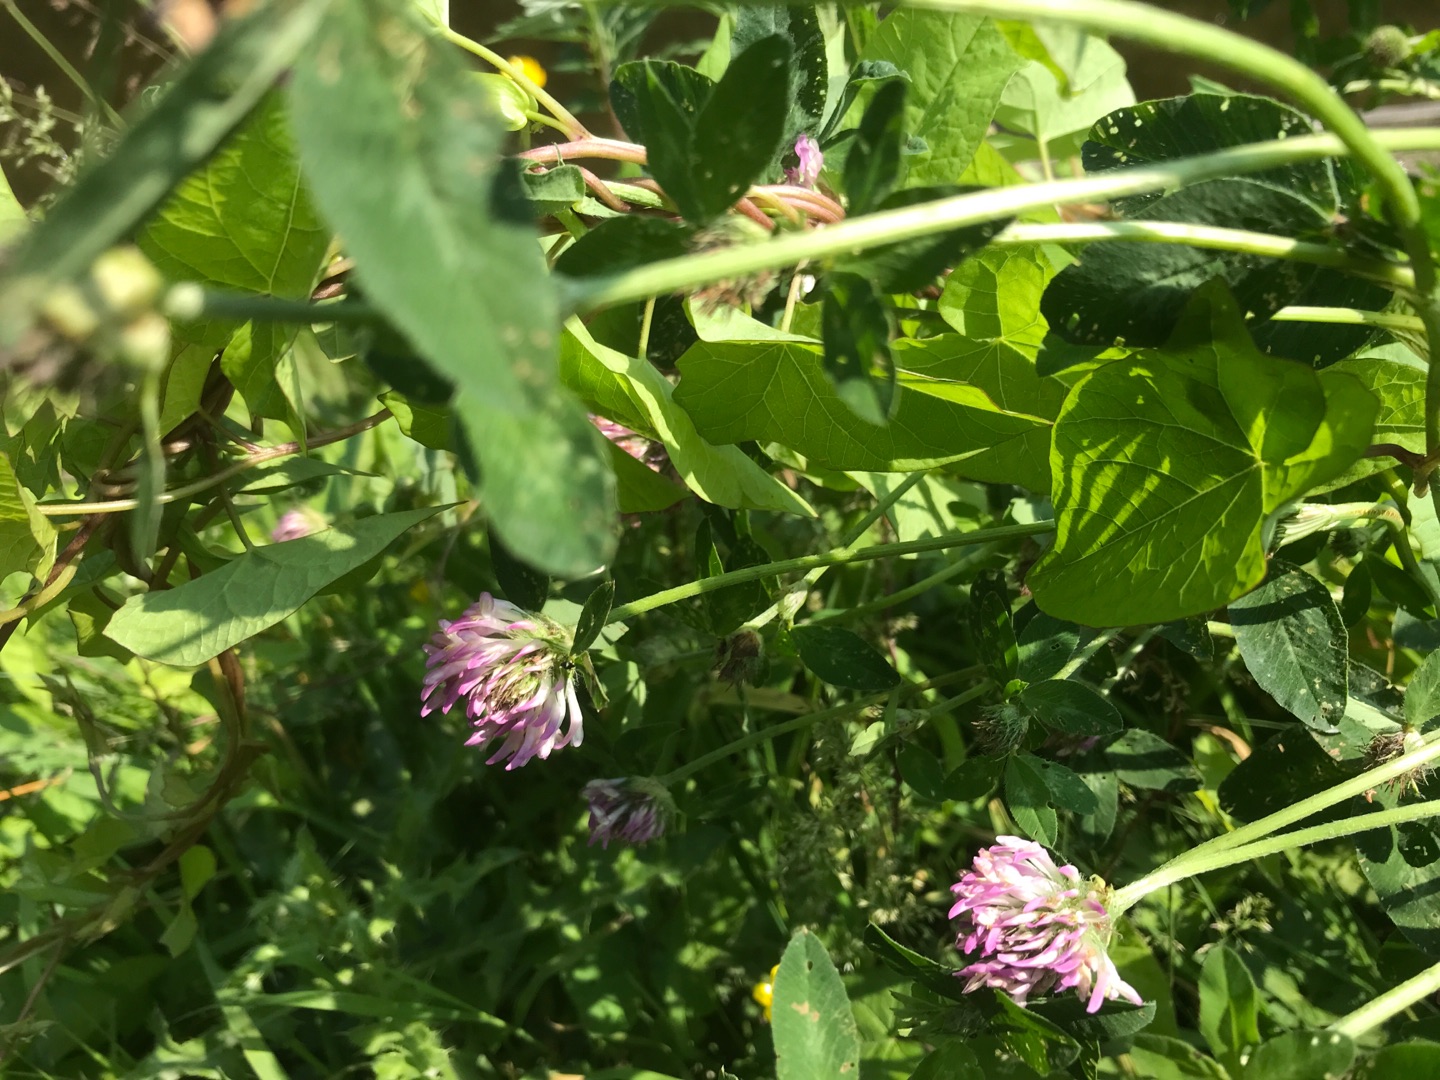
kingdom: Plantae
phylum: Tracheophyta
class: Magnoliopsida
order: Fabales
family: Fabaceae
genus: Trifolium
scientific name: Trifolium pratense
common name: Rød-kløver
